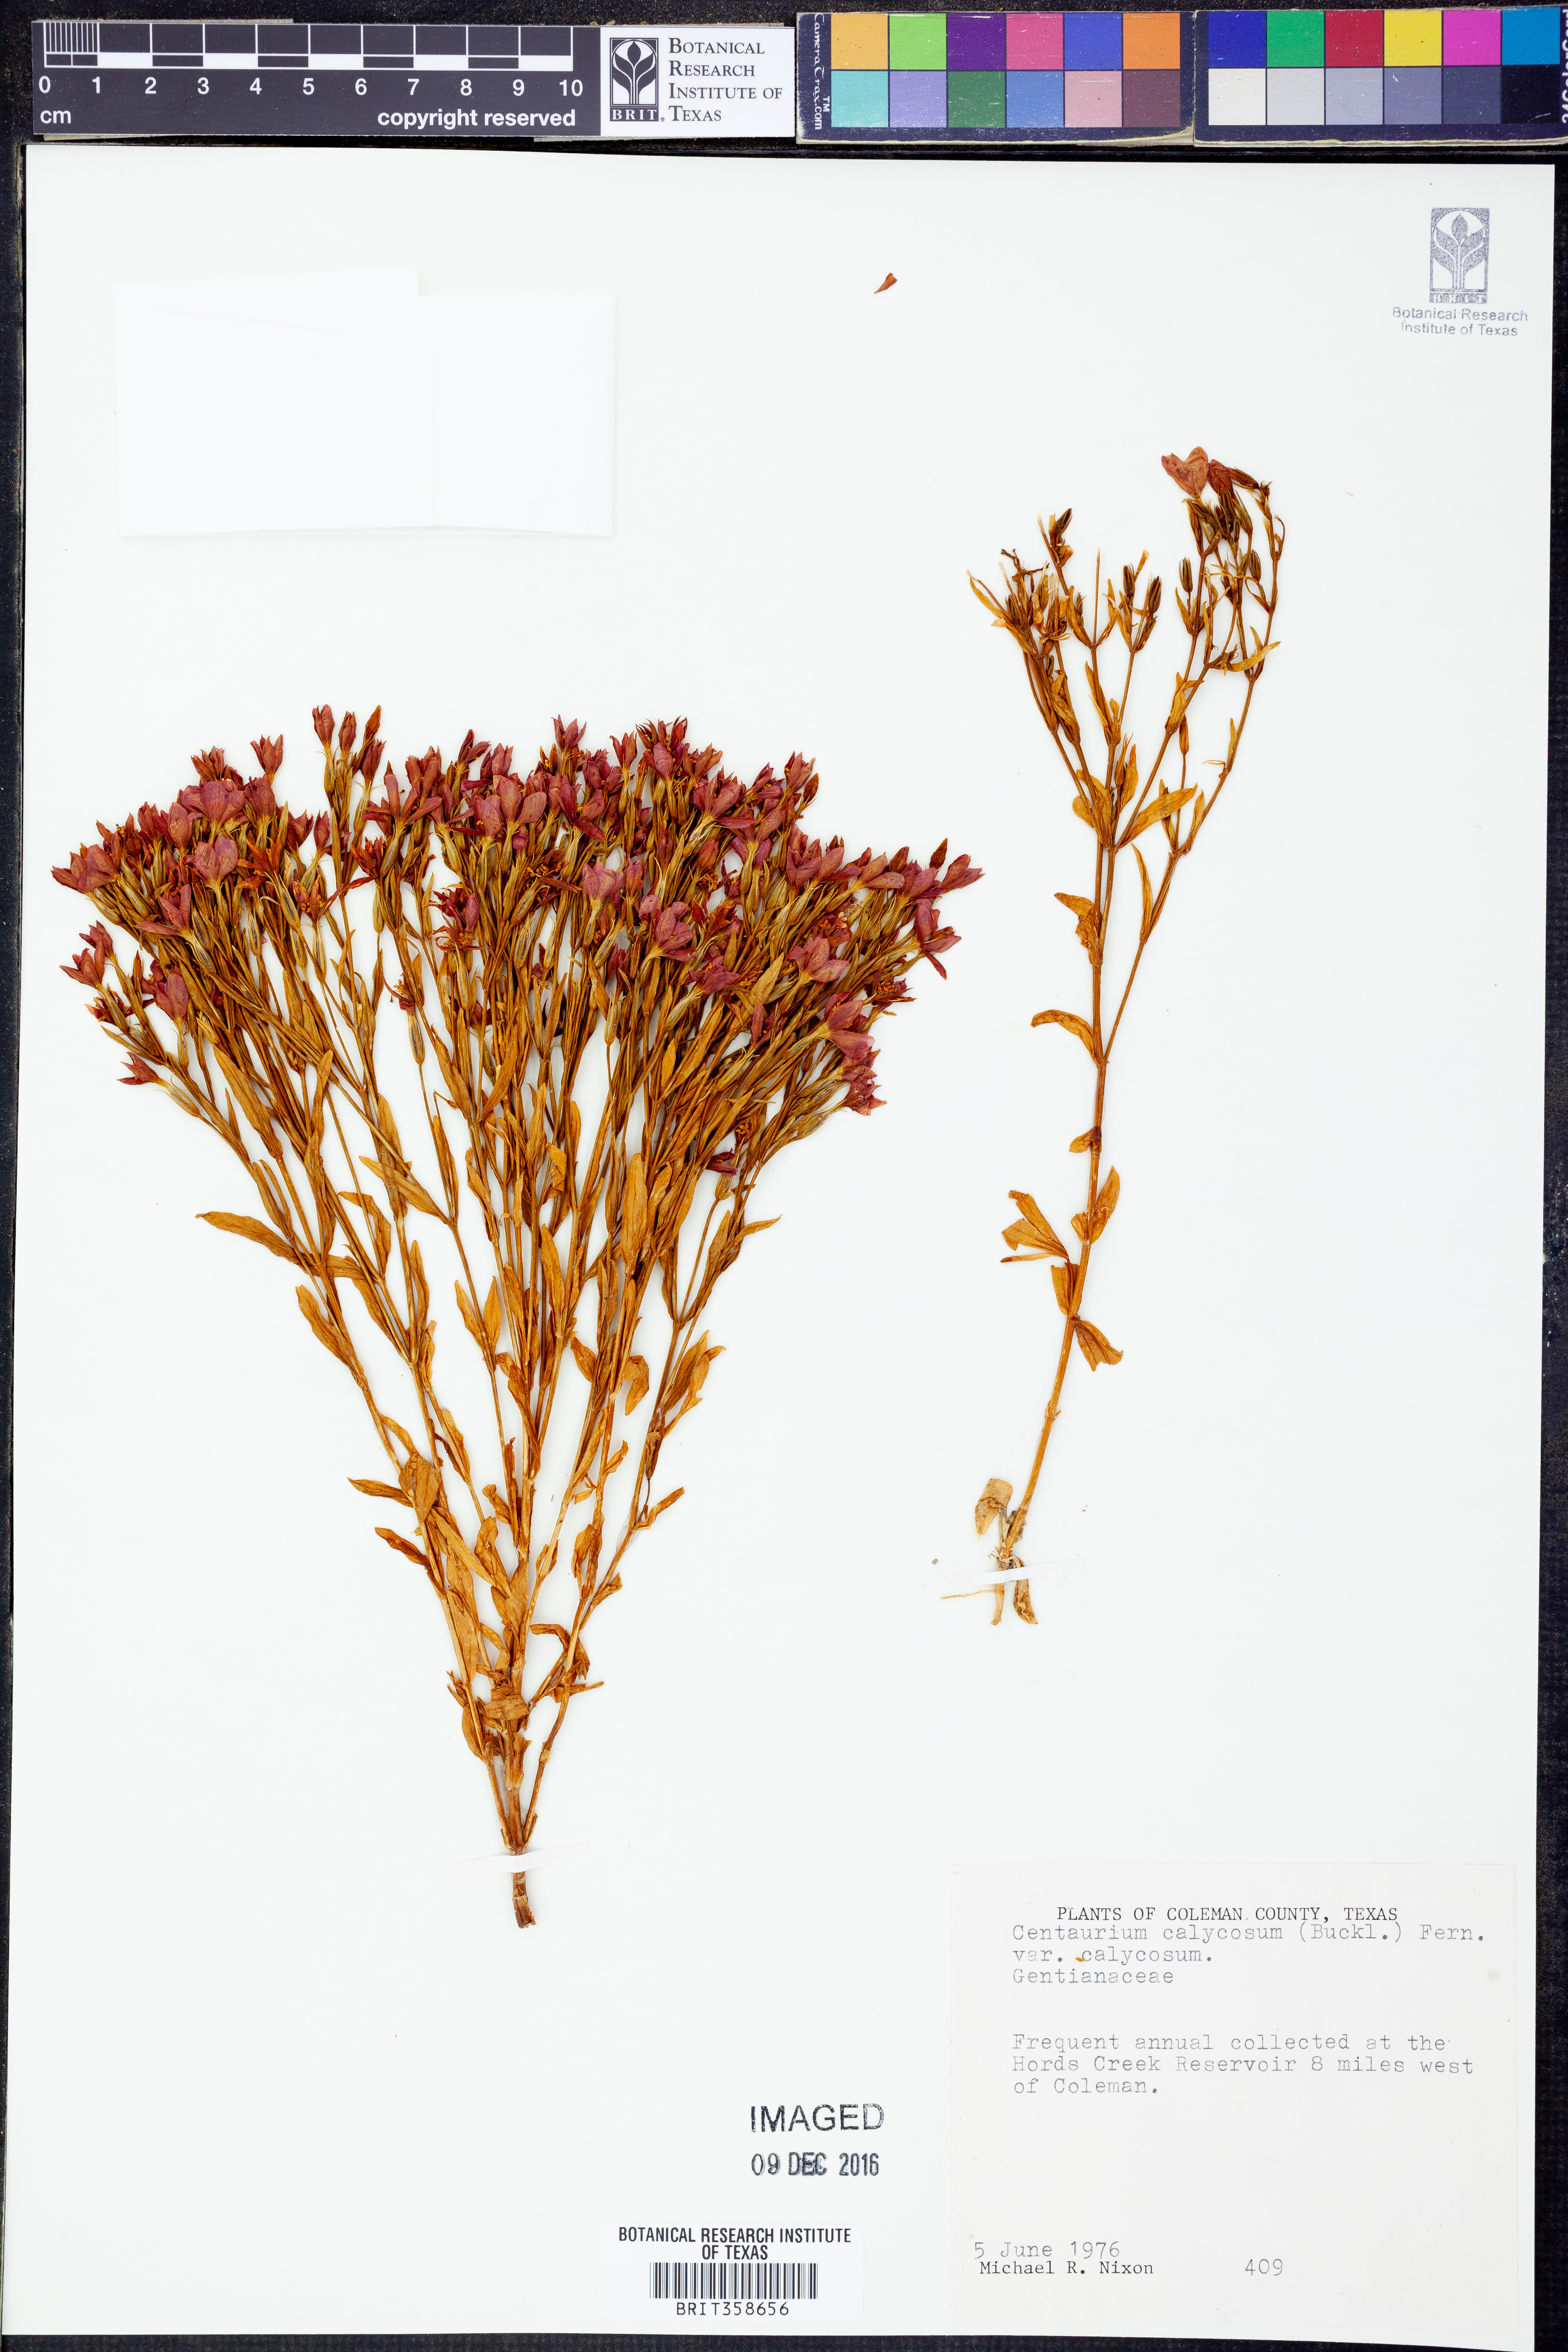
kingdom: Plantae
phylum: Tracheophyta
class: Magnoliopsida
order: Gentianales
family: Gentianaceae
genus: Zeltnera
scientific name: Zeltnera calycosa
